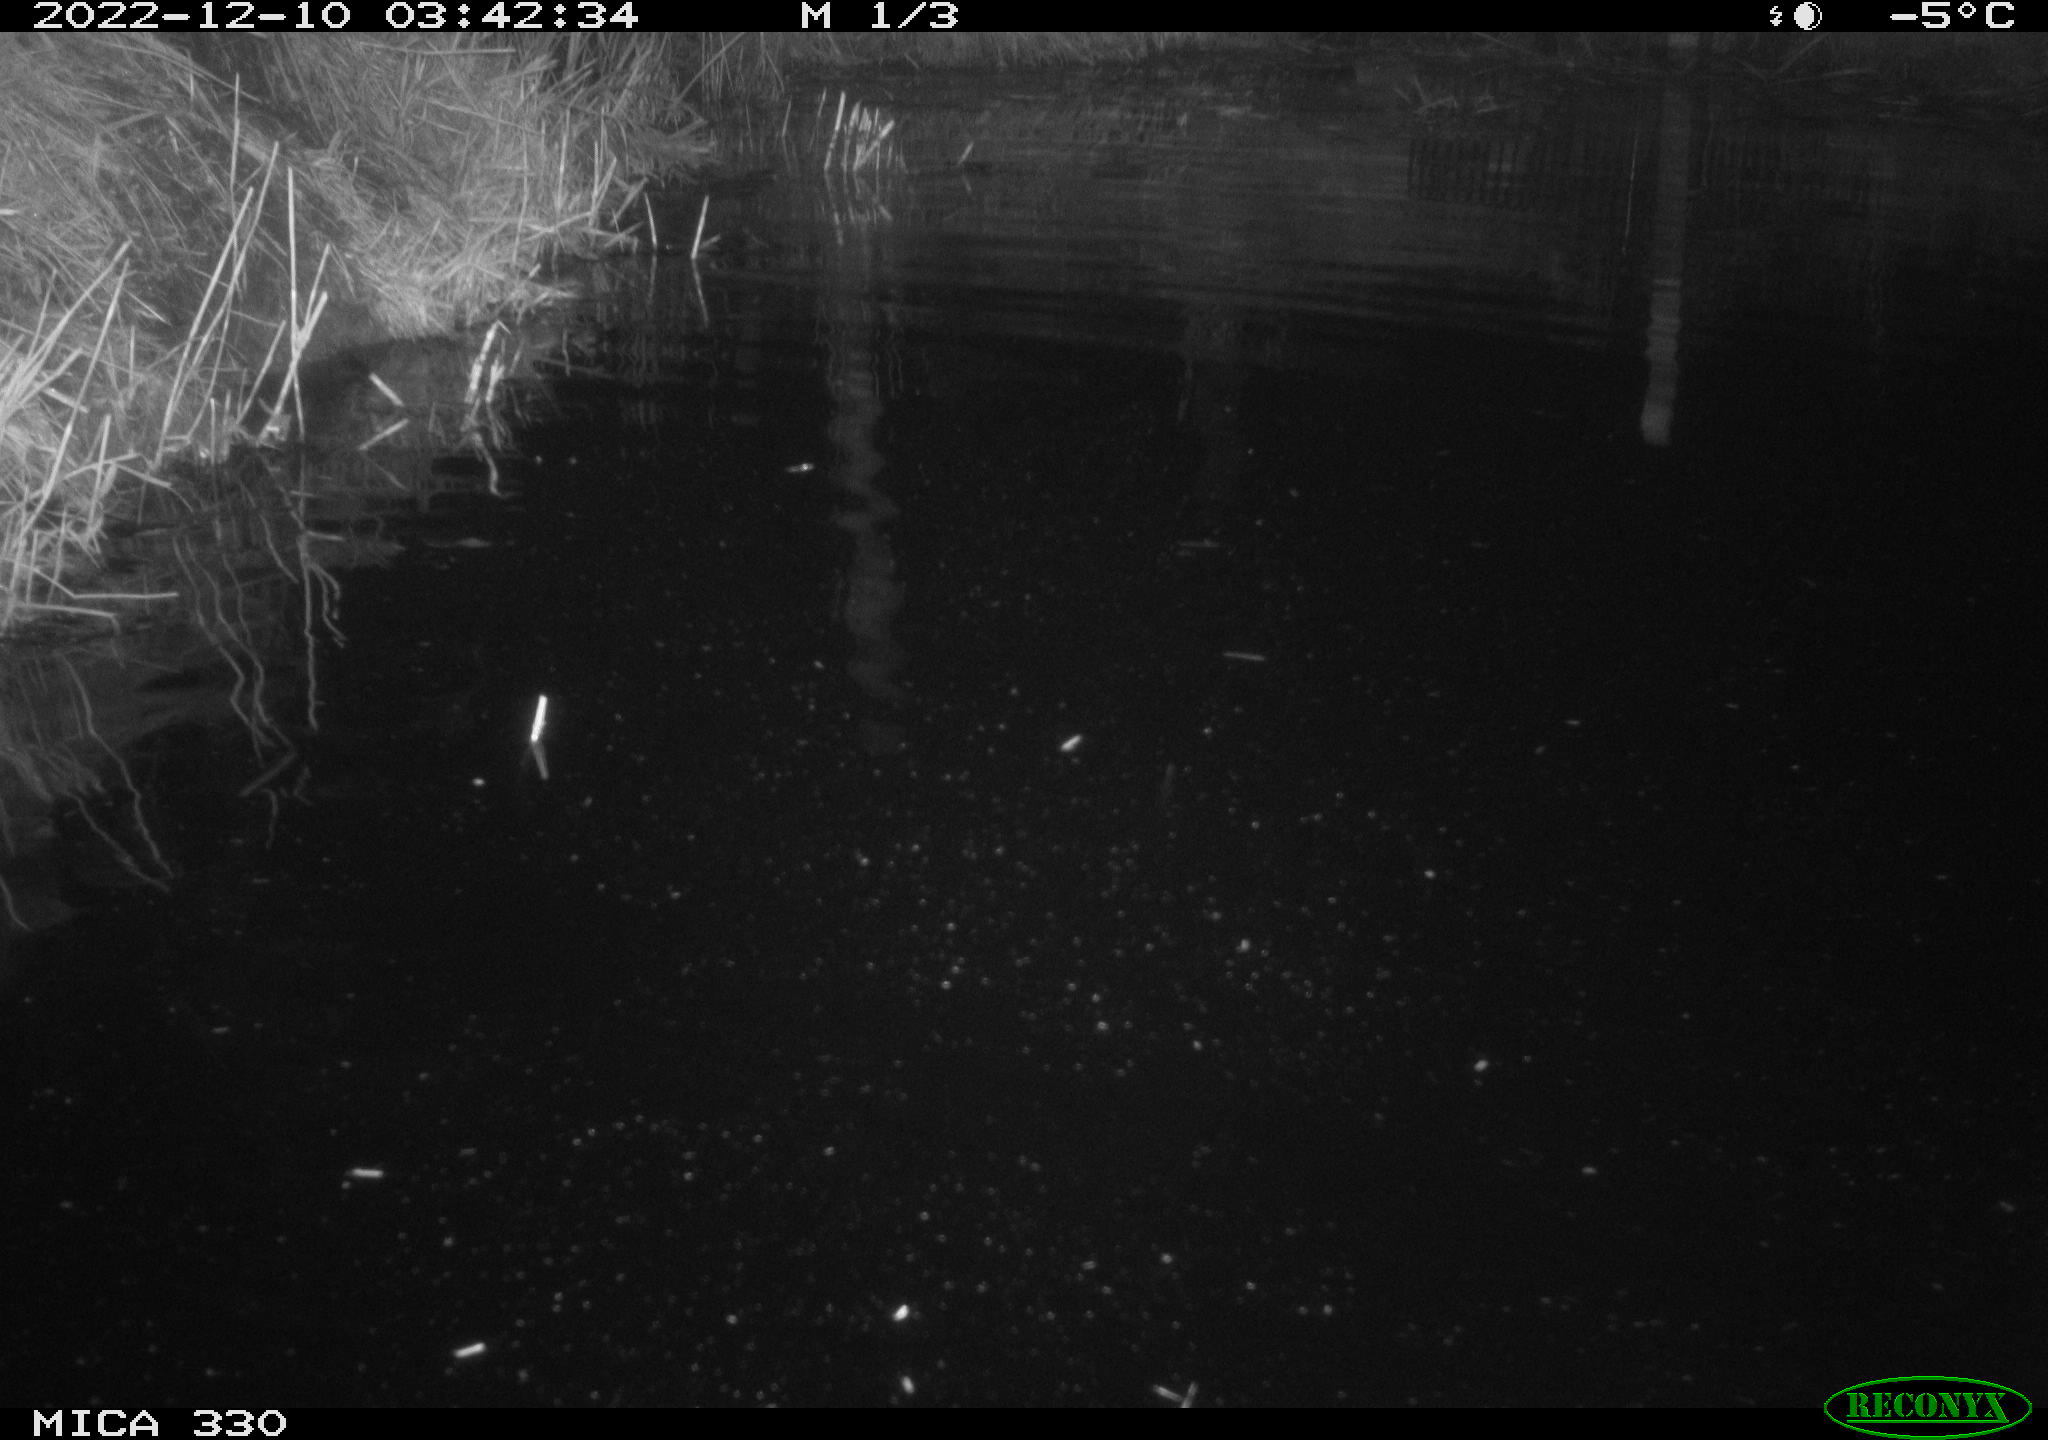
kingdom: Animalia
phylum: Chordata
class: Aves
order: Anseriformes
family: Anatidae
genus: Anas
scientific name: Anas platyrhynchos
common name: Mallard
